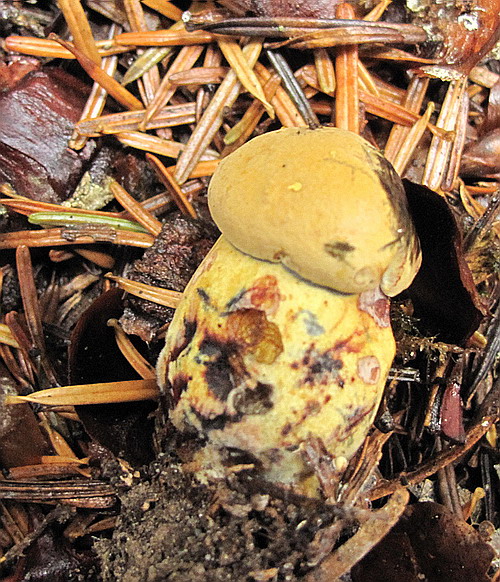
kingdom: Fungi
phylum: Basidiomycota
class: Agaricomycetes
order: Boletales
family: Boletaceae
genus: Neoboletus
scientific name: Neoboletus erythropus
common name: punktstokket indigorørhat
